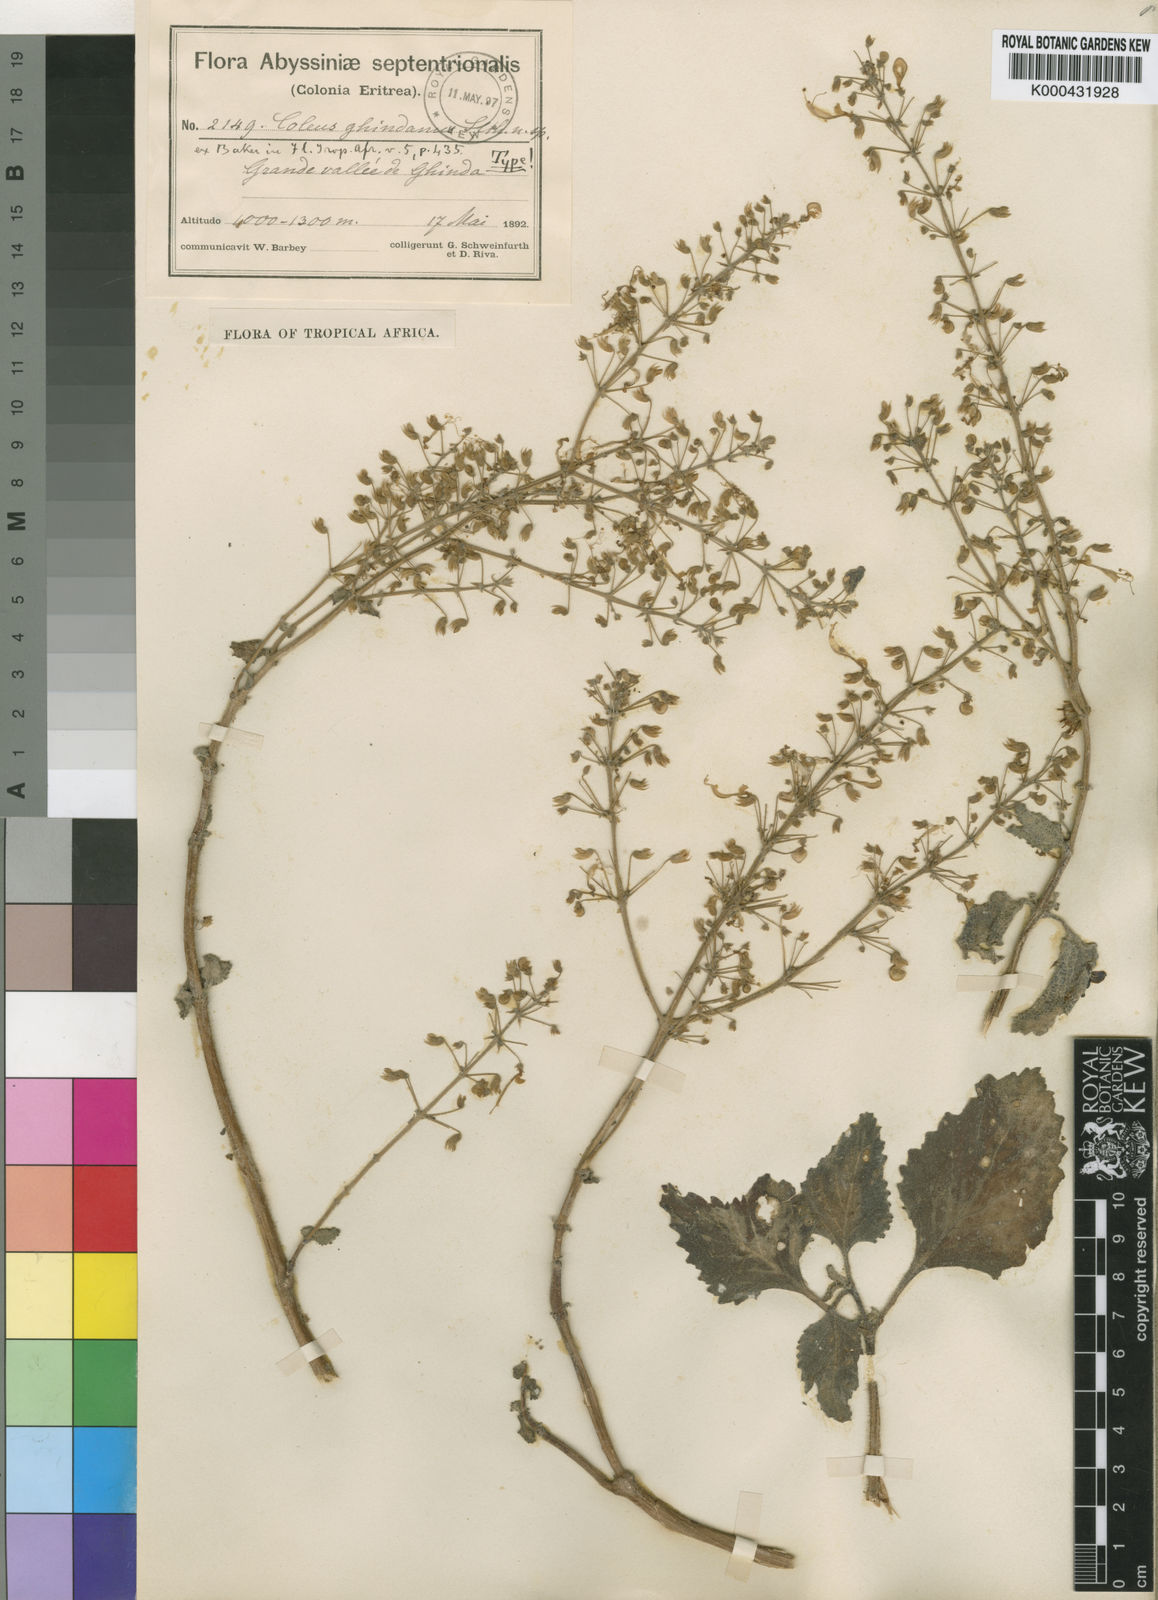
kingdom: Plantae
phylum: Tracheophyta
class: Magnoliopsida
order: Lamiales
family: Lamiaceae
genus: Plectranthus
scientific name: Plectranthus
